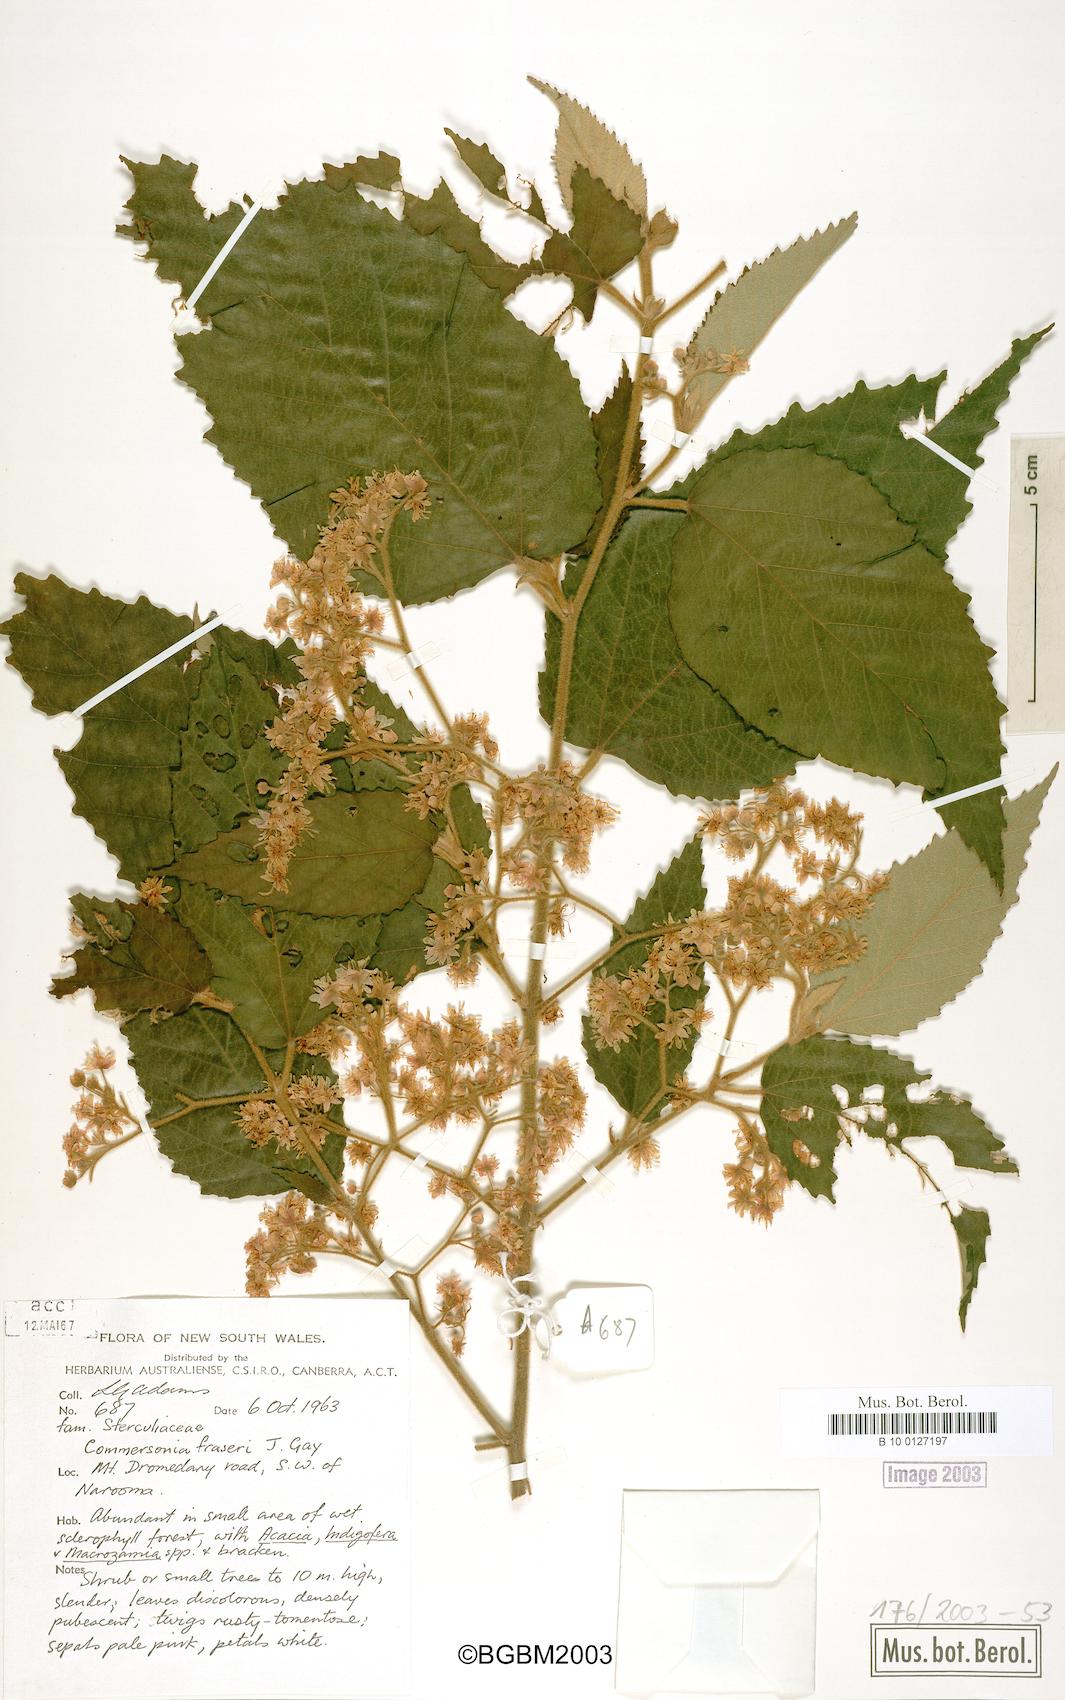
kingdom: Plantae
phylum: Tracheophyta
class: Magnoliopsida
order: Malvales
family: Malvaceae
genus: Androcalva
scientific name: Androcalva fraseri
